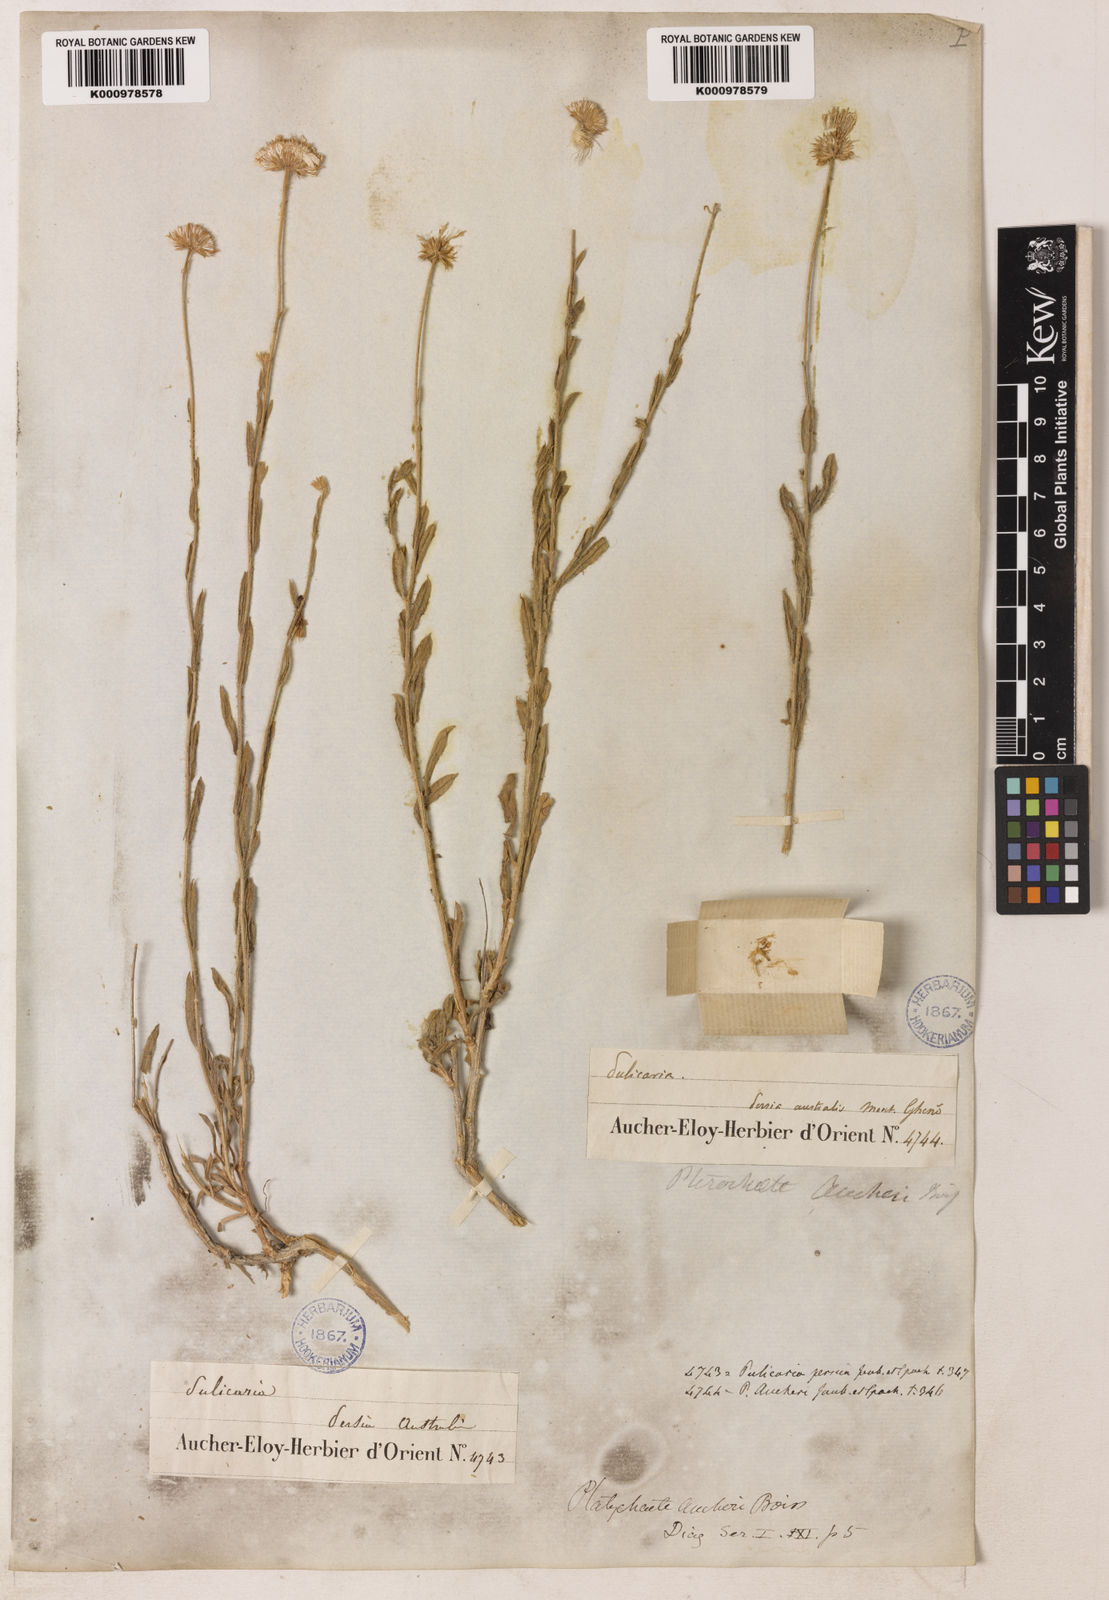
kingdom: Plantae
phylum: Tracheophyta
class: Magnoliopsida
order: Asterales
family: Asteraceae
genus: Pulicaria
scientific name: Pulicaria aucheri
